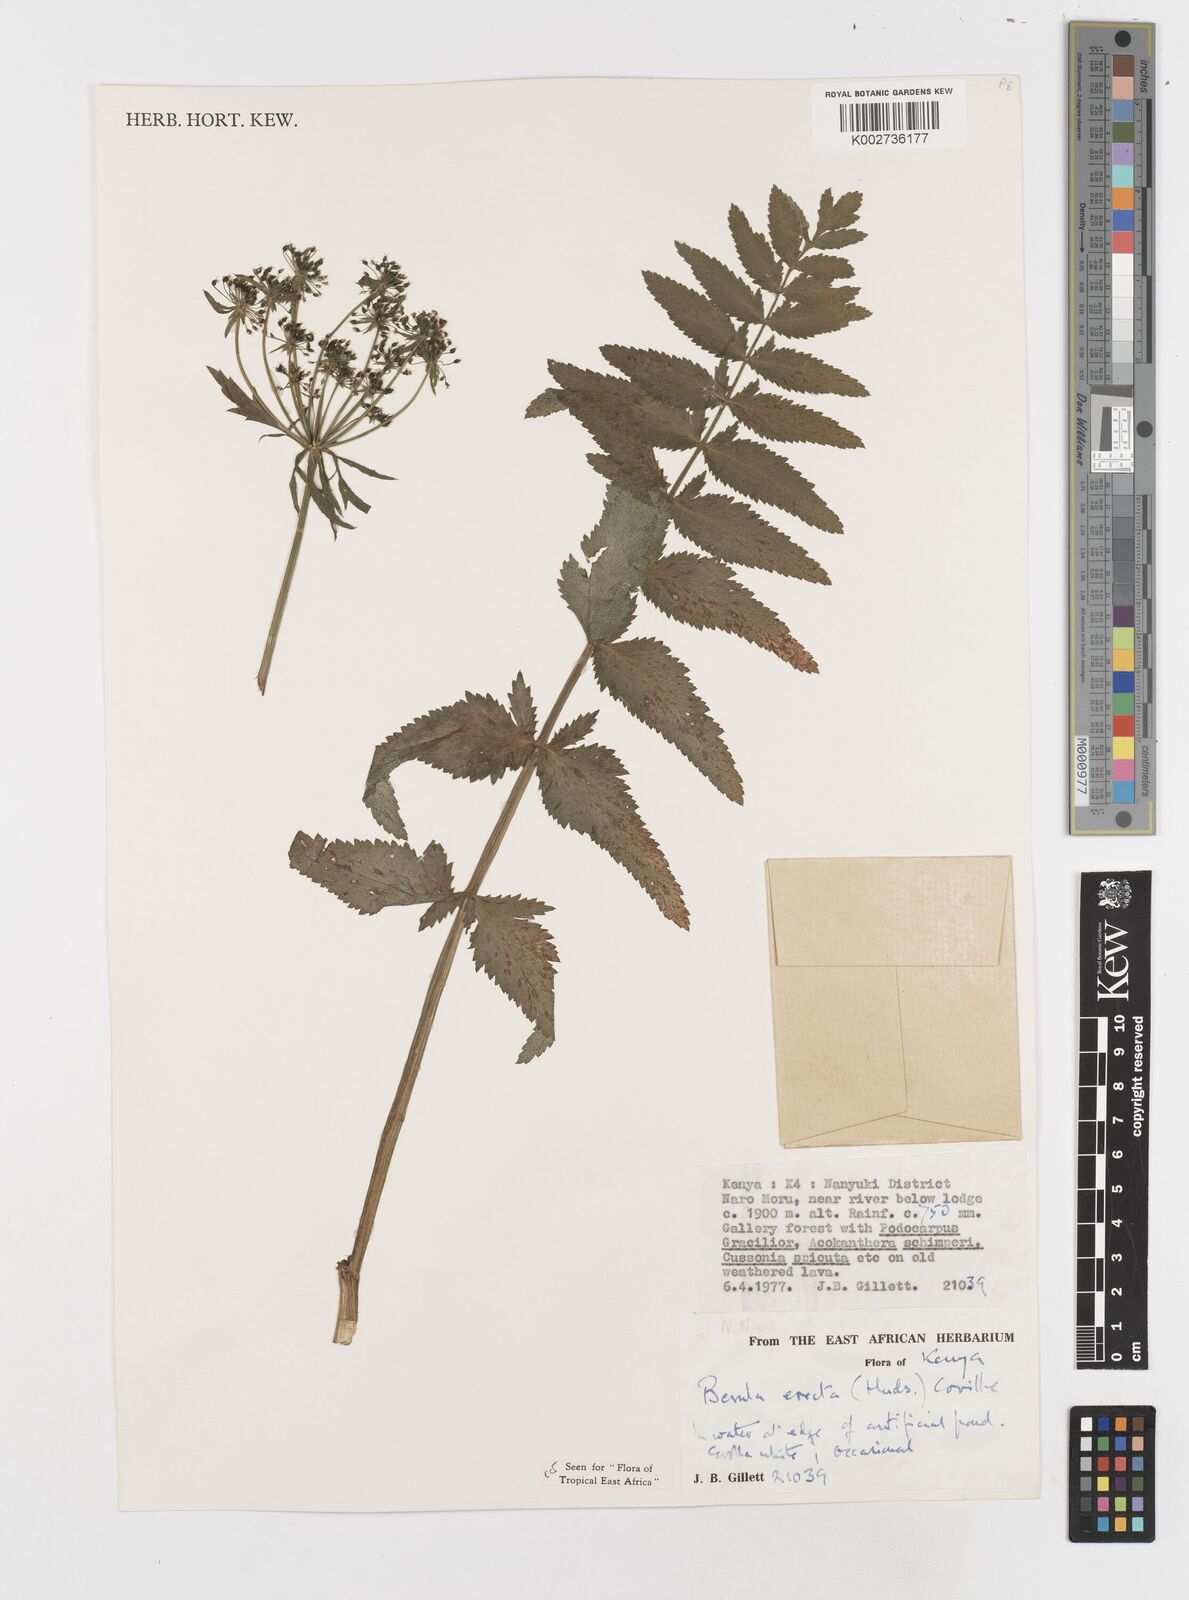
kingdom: Plantae
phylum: Tracheophyta
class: Magnoliopsida
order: Apiales
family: Apiaceae
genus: Berula
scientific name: Berula erecta
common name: Lesser water-parsnip
